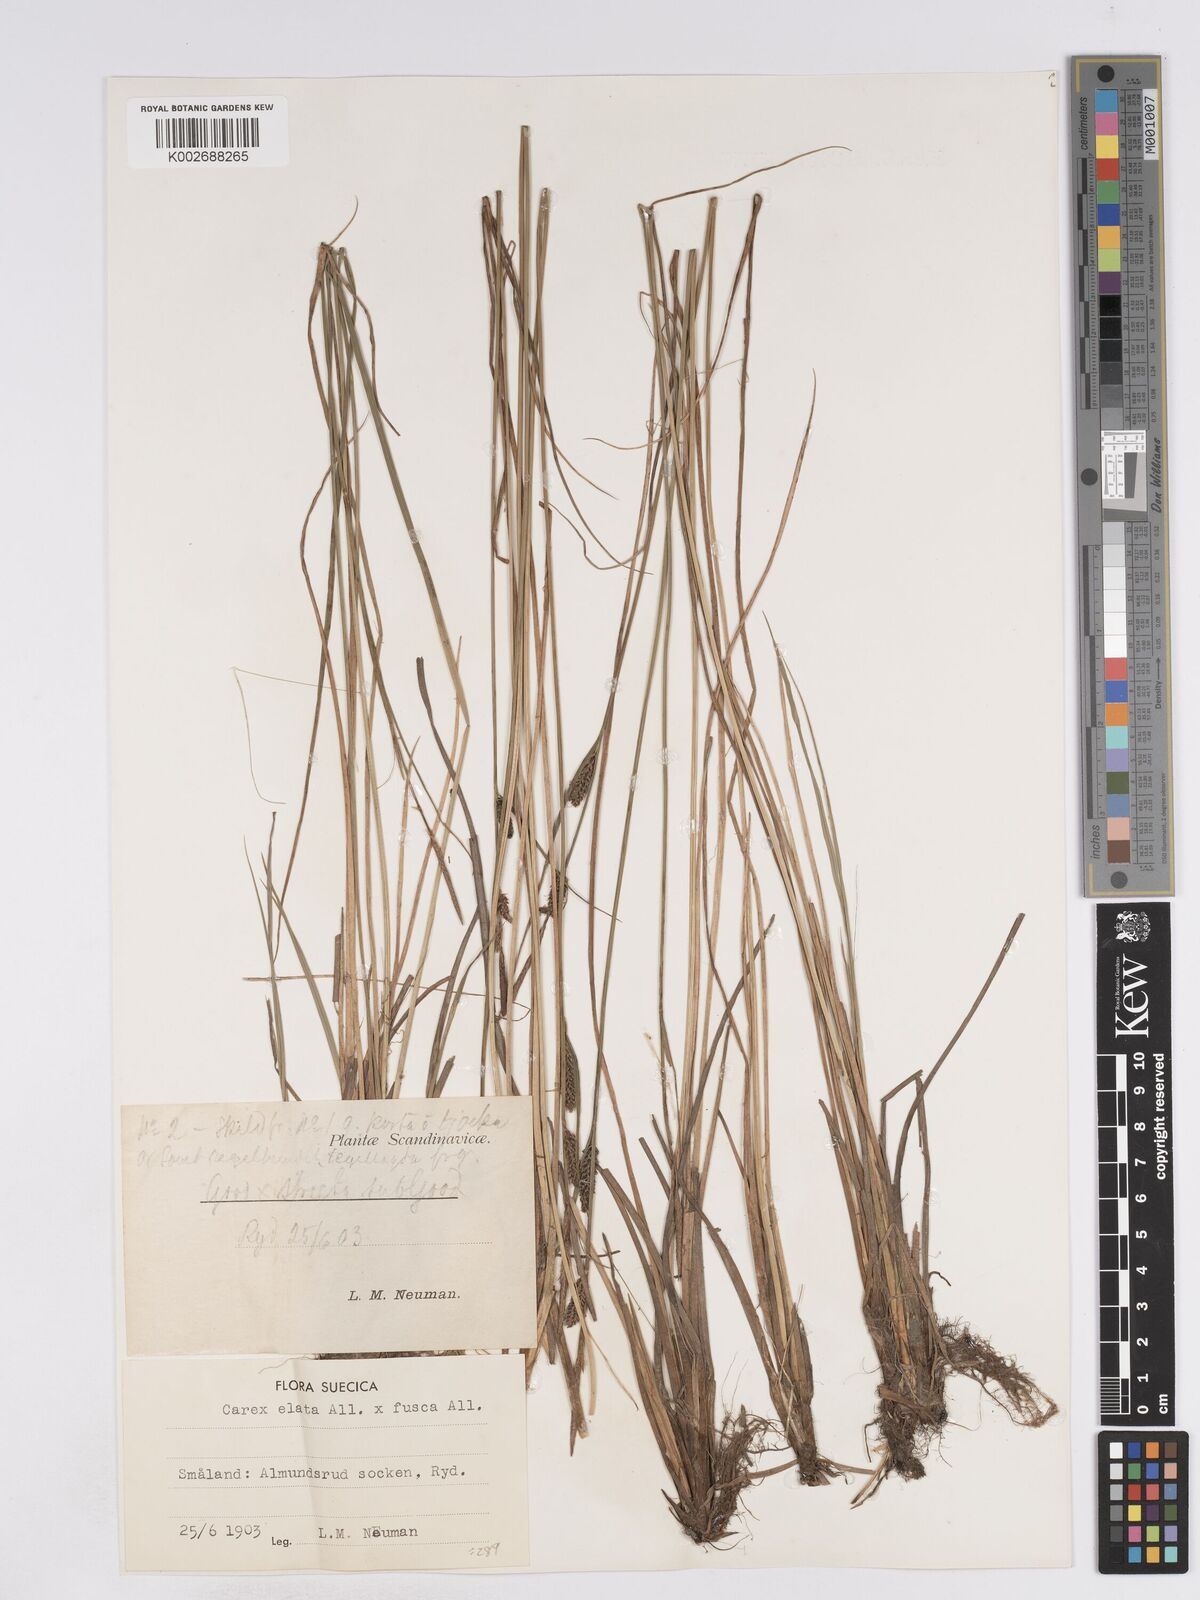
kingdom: Plantae
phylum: Tracheophyta
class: Liliopsida
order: Poales
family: Cyperaceae
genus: Carex
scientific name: Carex elata
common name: Tufted sedge
